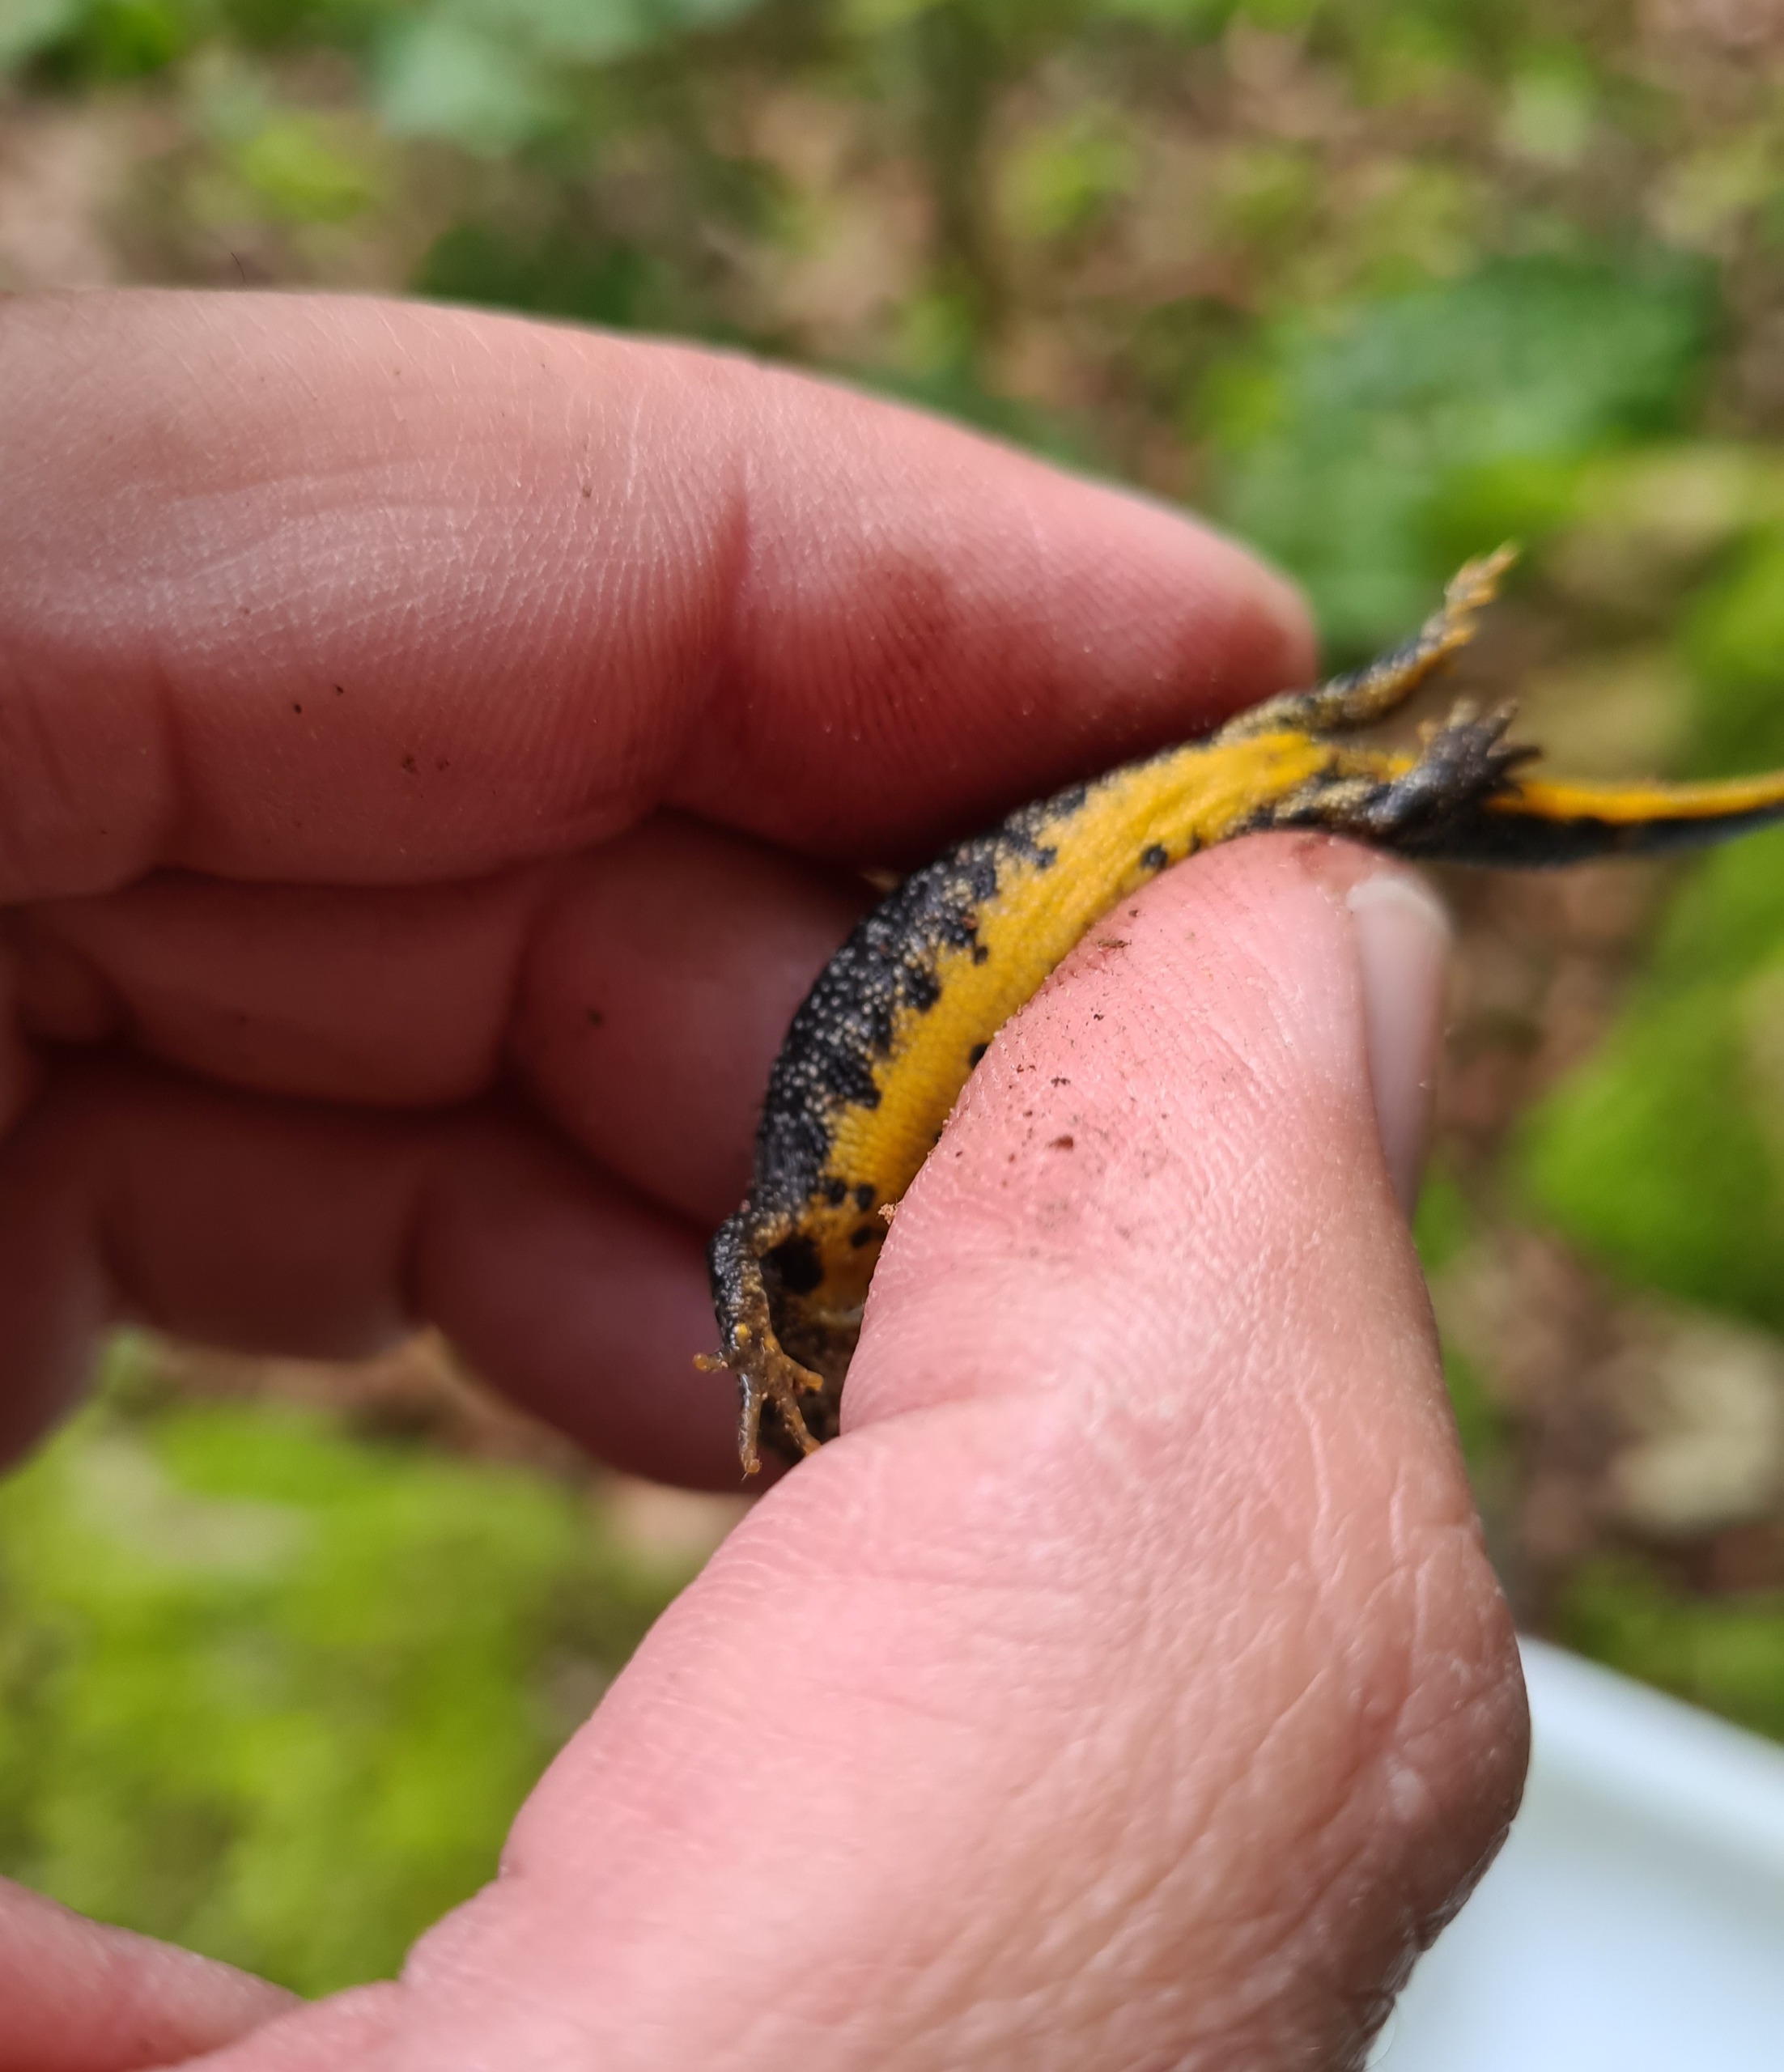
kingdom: Animalia
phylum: Chordata
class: Amphibia
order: Caudata
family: Salamandridae
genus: Triturus
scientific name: Triturus cristatus
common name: Stor vandsalamander
